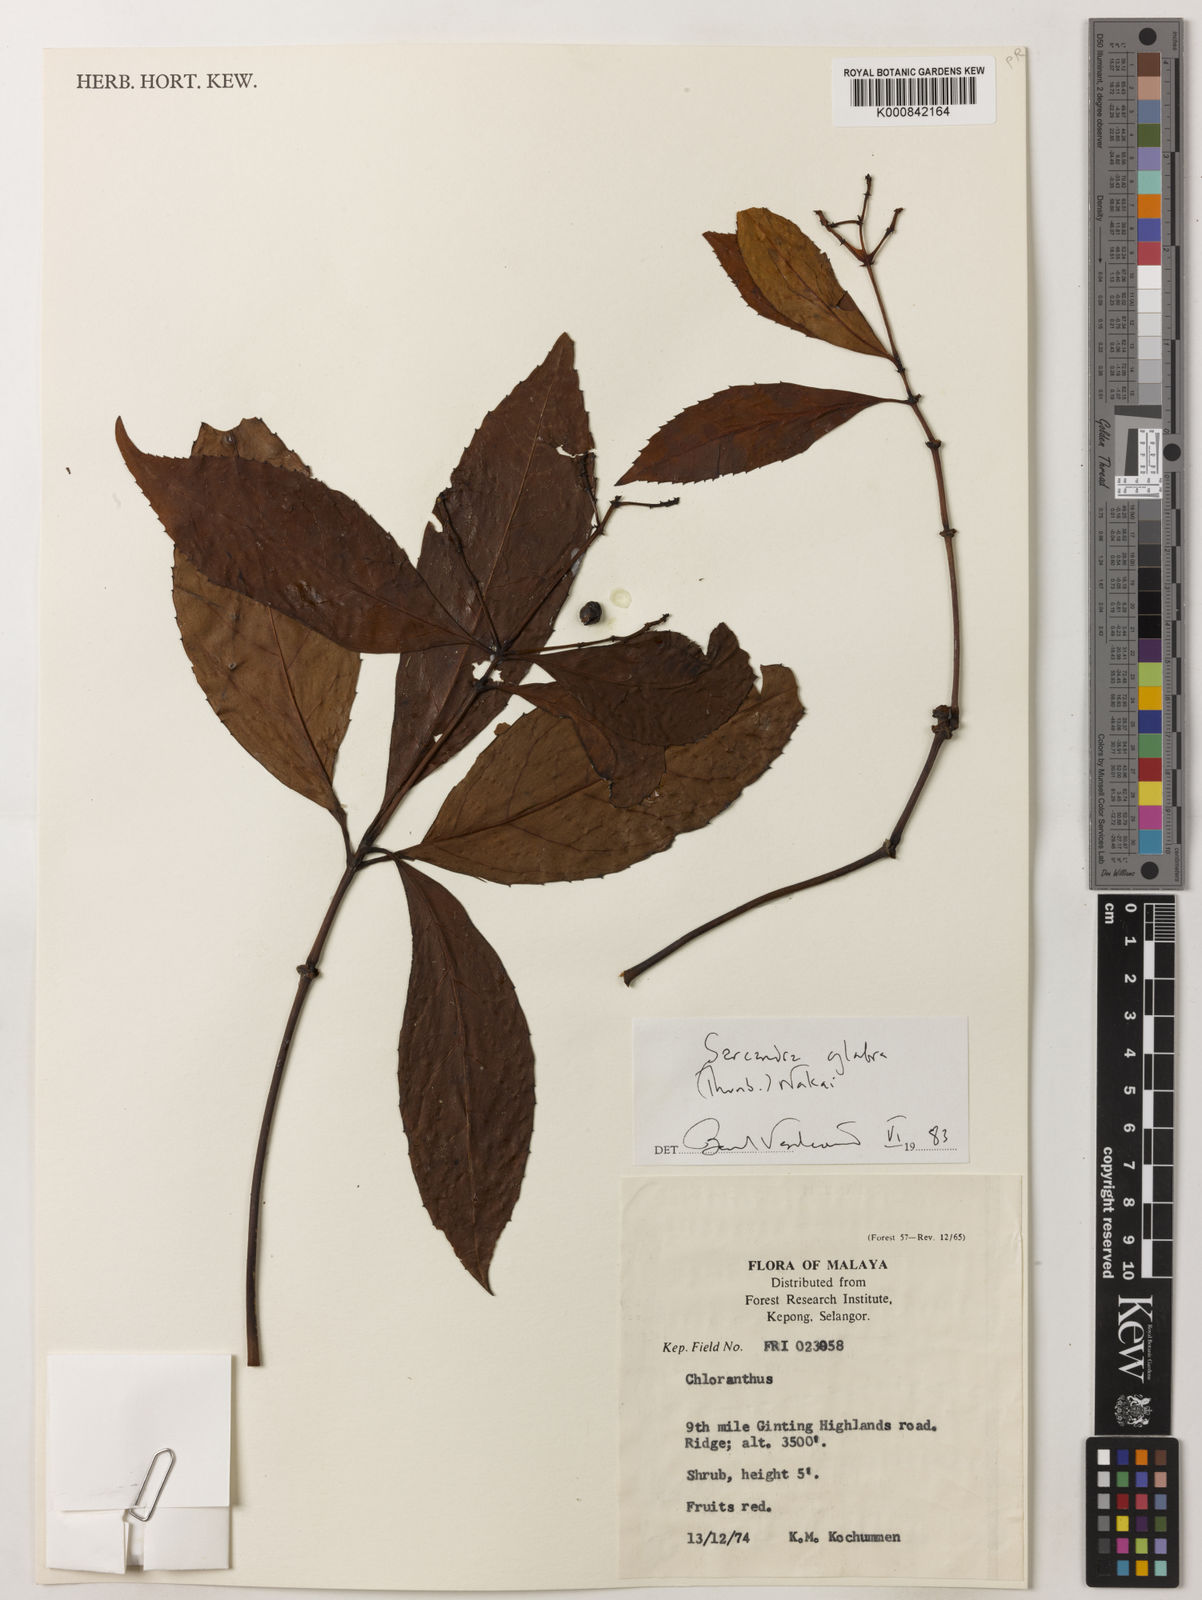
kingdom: Plantae
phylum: Tracheophyta
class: Magnoliopsida
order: Chloranthales
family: Chloranthaceae
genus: Sarcandra
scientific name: Sarcandra glabra
